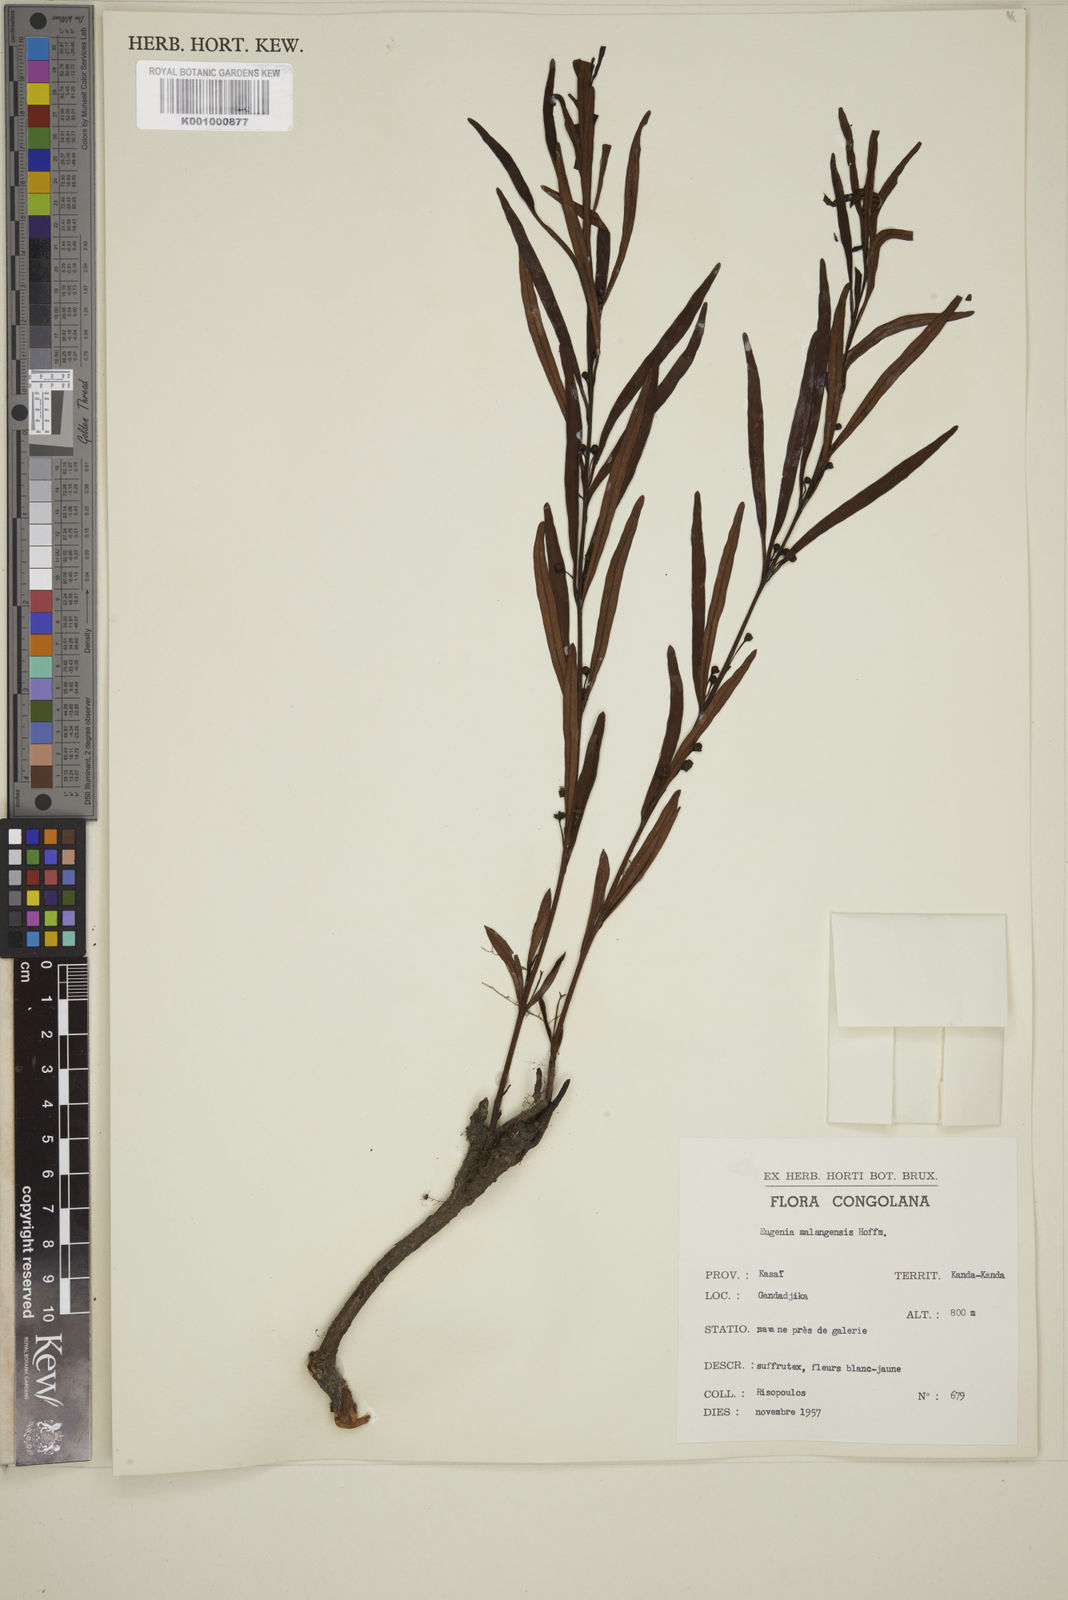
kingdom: Plantae
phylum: Tracheophyta
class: Magnoliopsida
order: Myrtales
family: Myrtaceae
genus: Eugenia
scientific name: Eugenia malangensis
